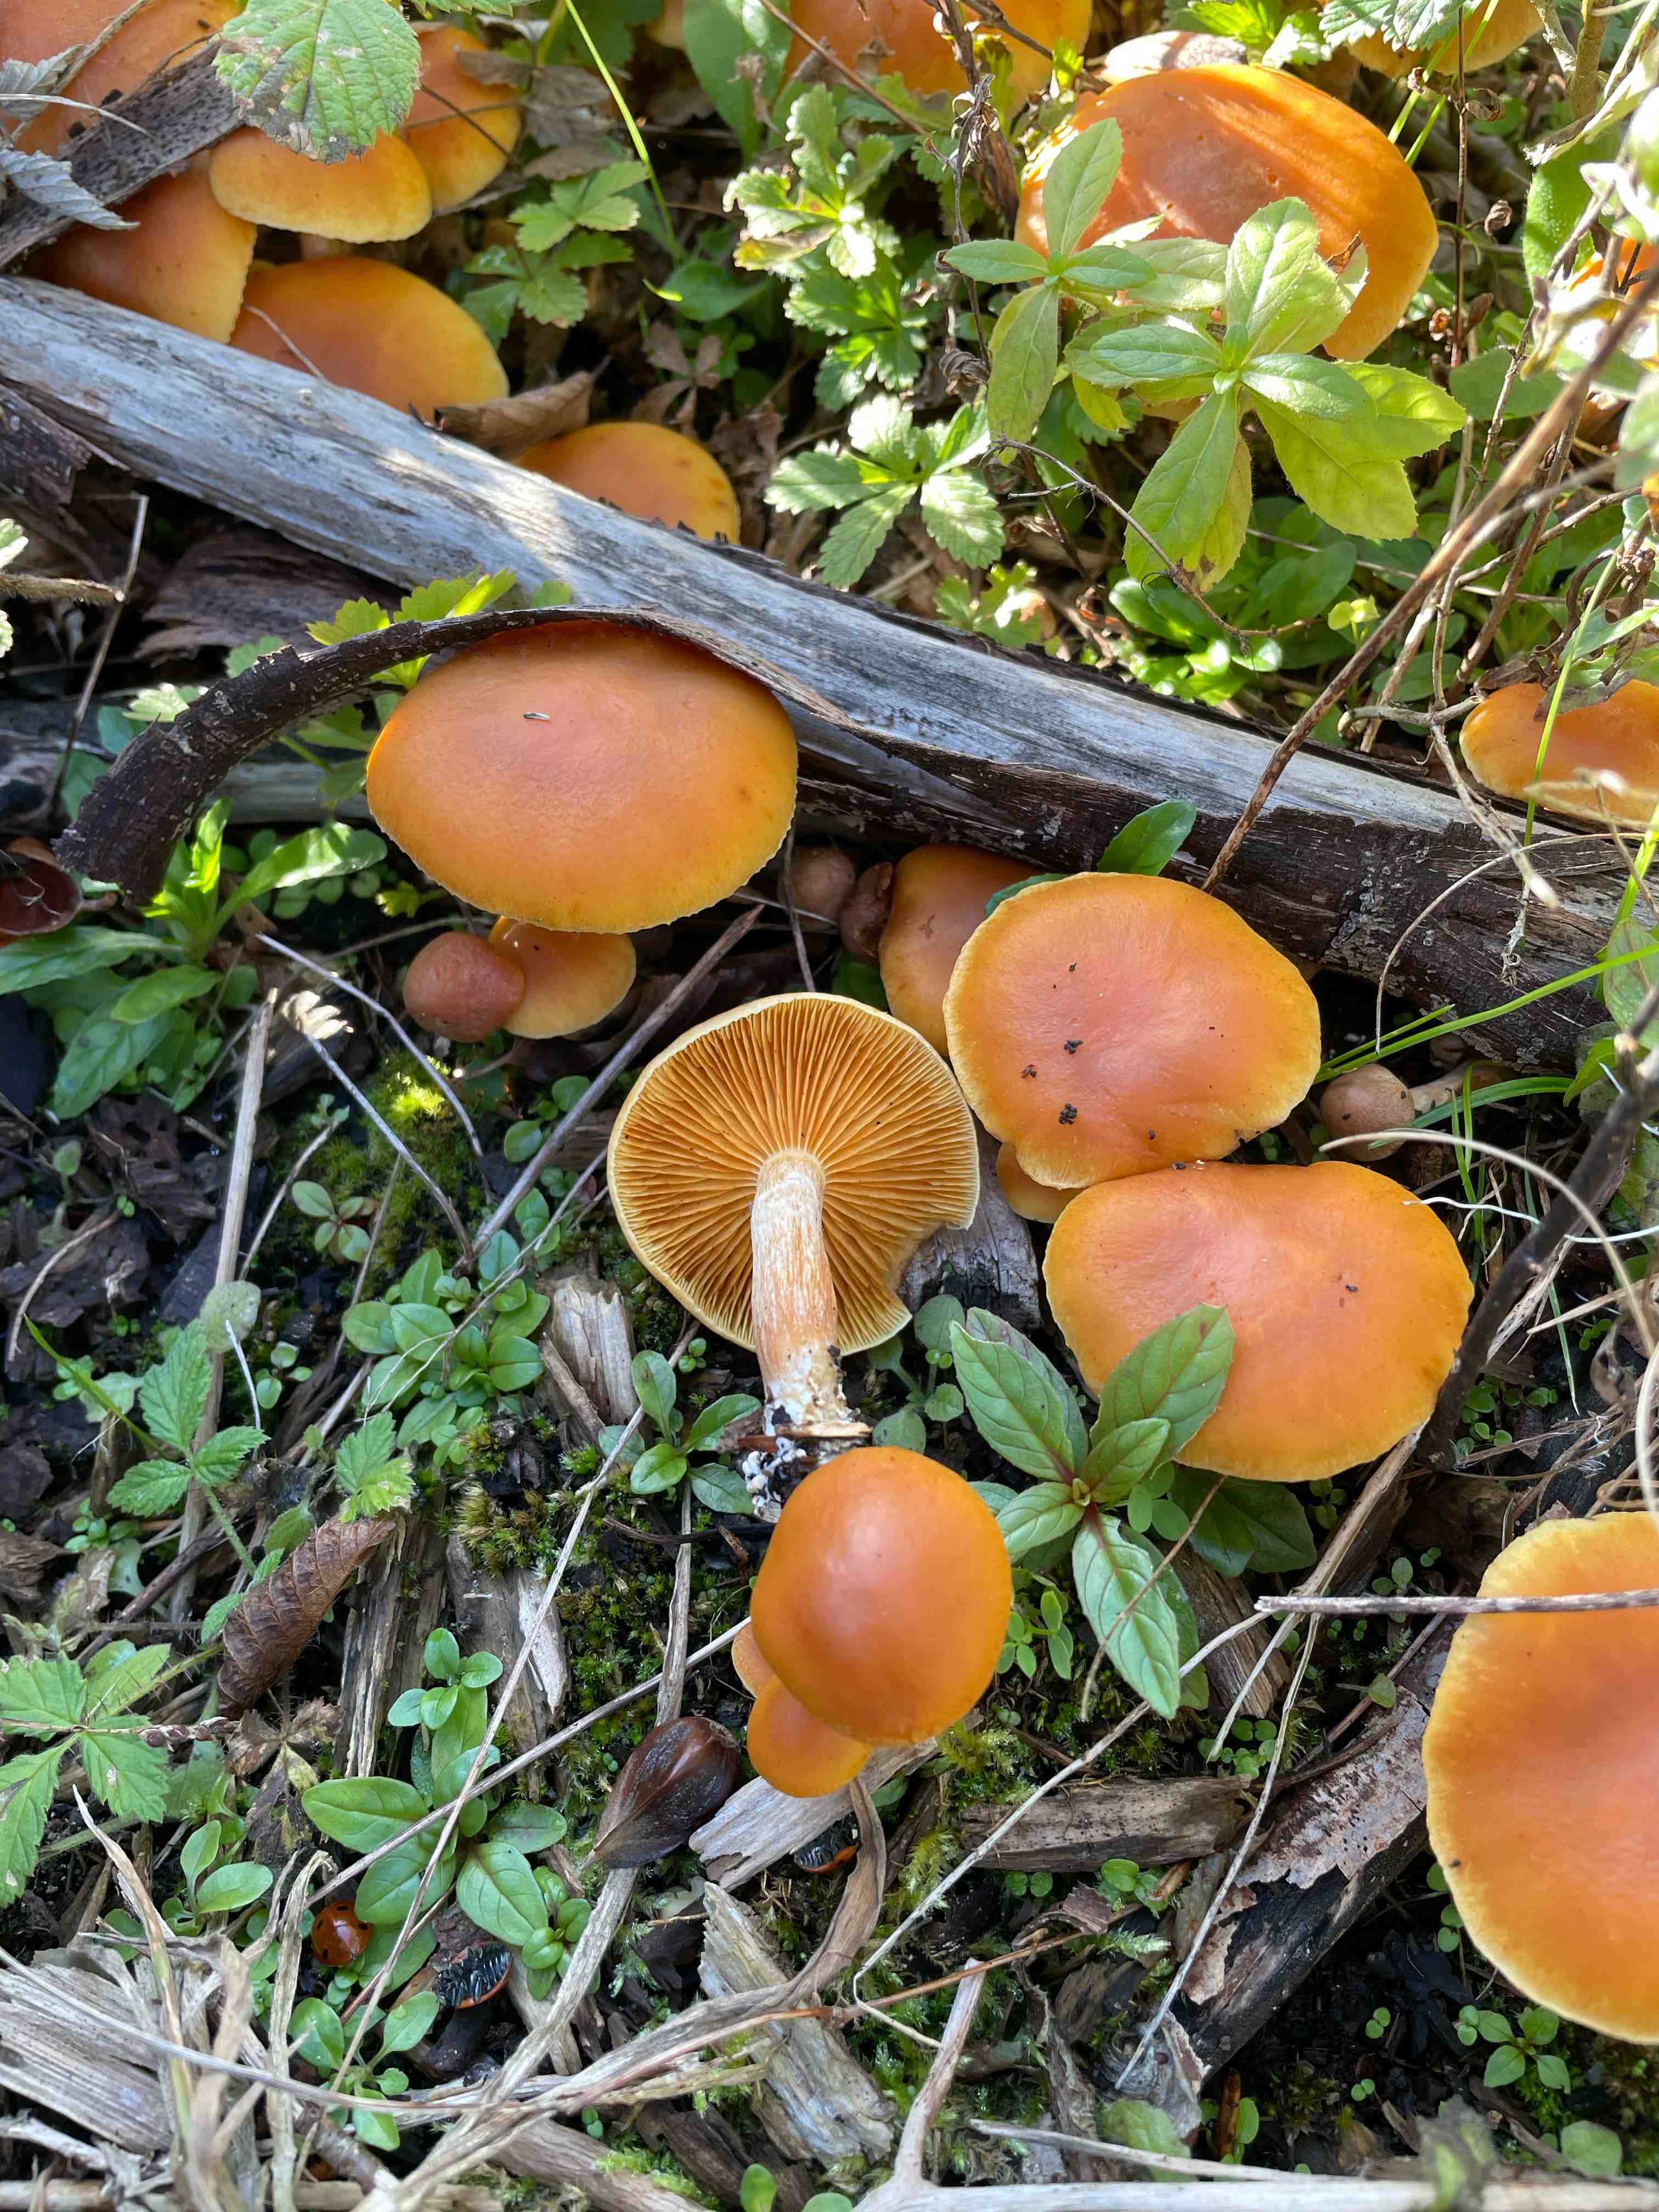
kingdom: Fungi
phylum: Basidiomycota
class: Agaricomycetes
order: Agaricales
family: Hymenogastraceae
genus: Gymnopilus
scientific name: Gymnopilus penetrans
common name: plettet flammehat
